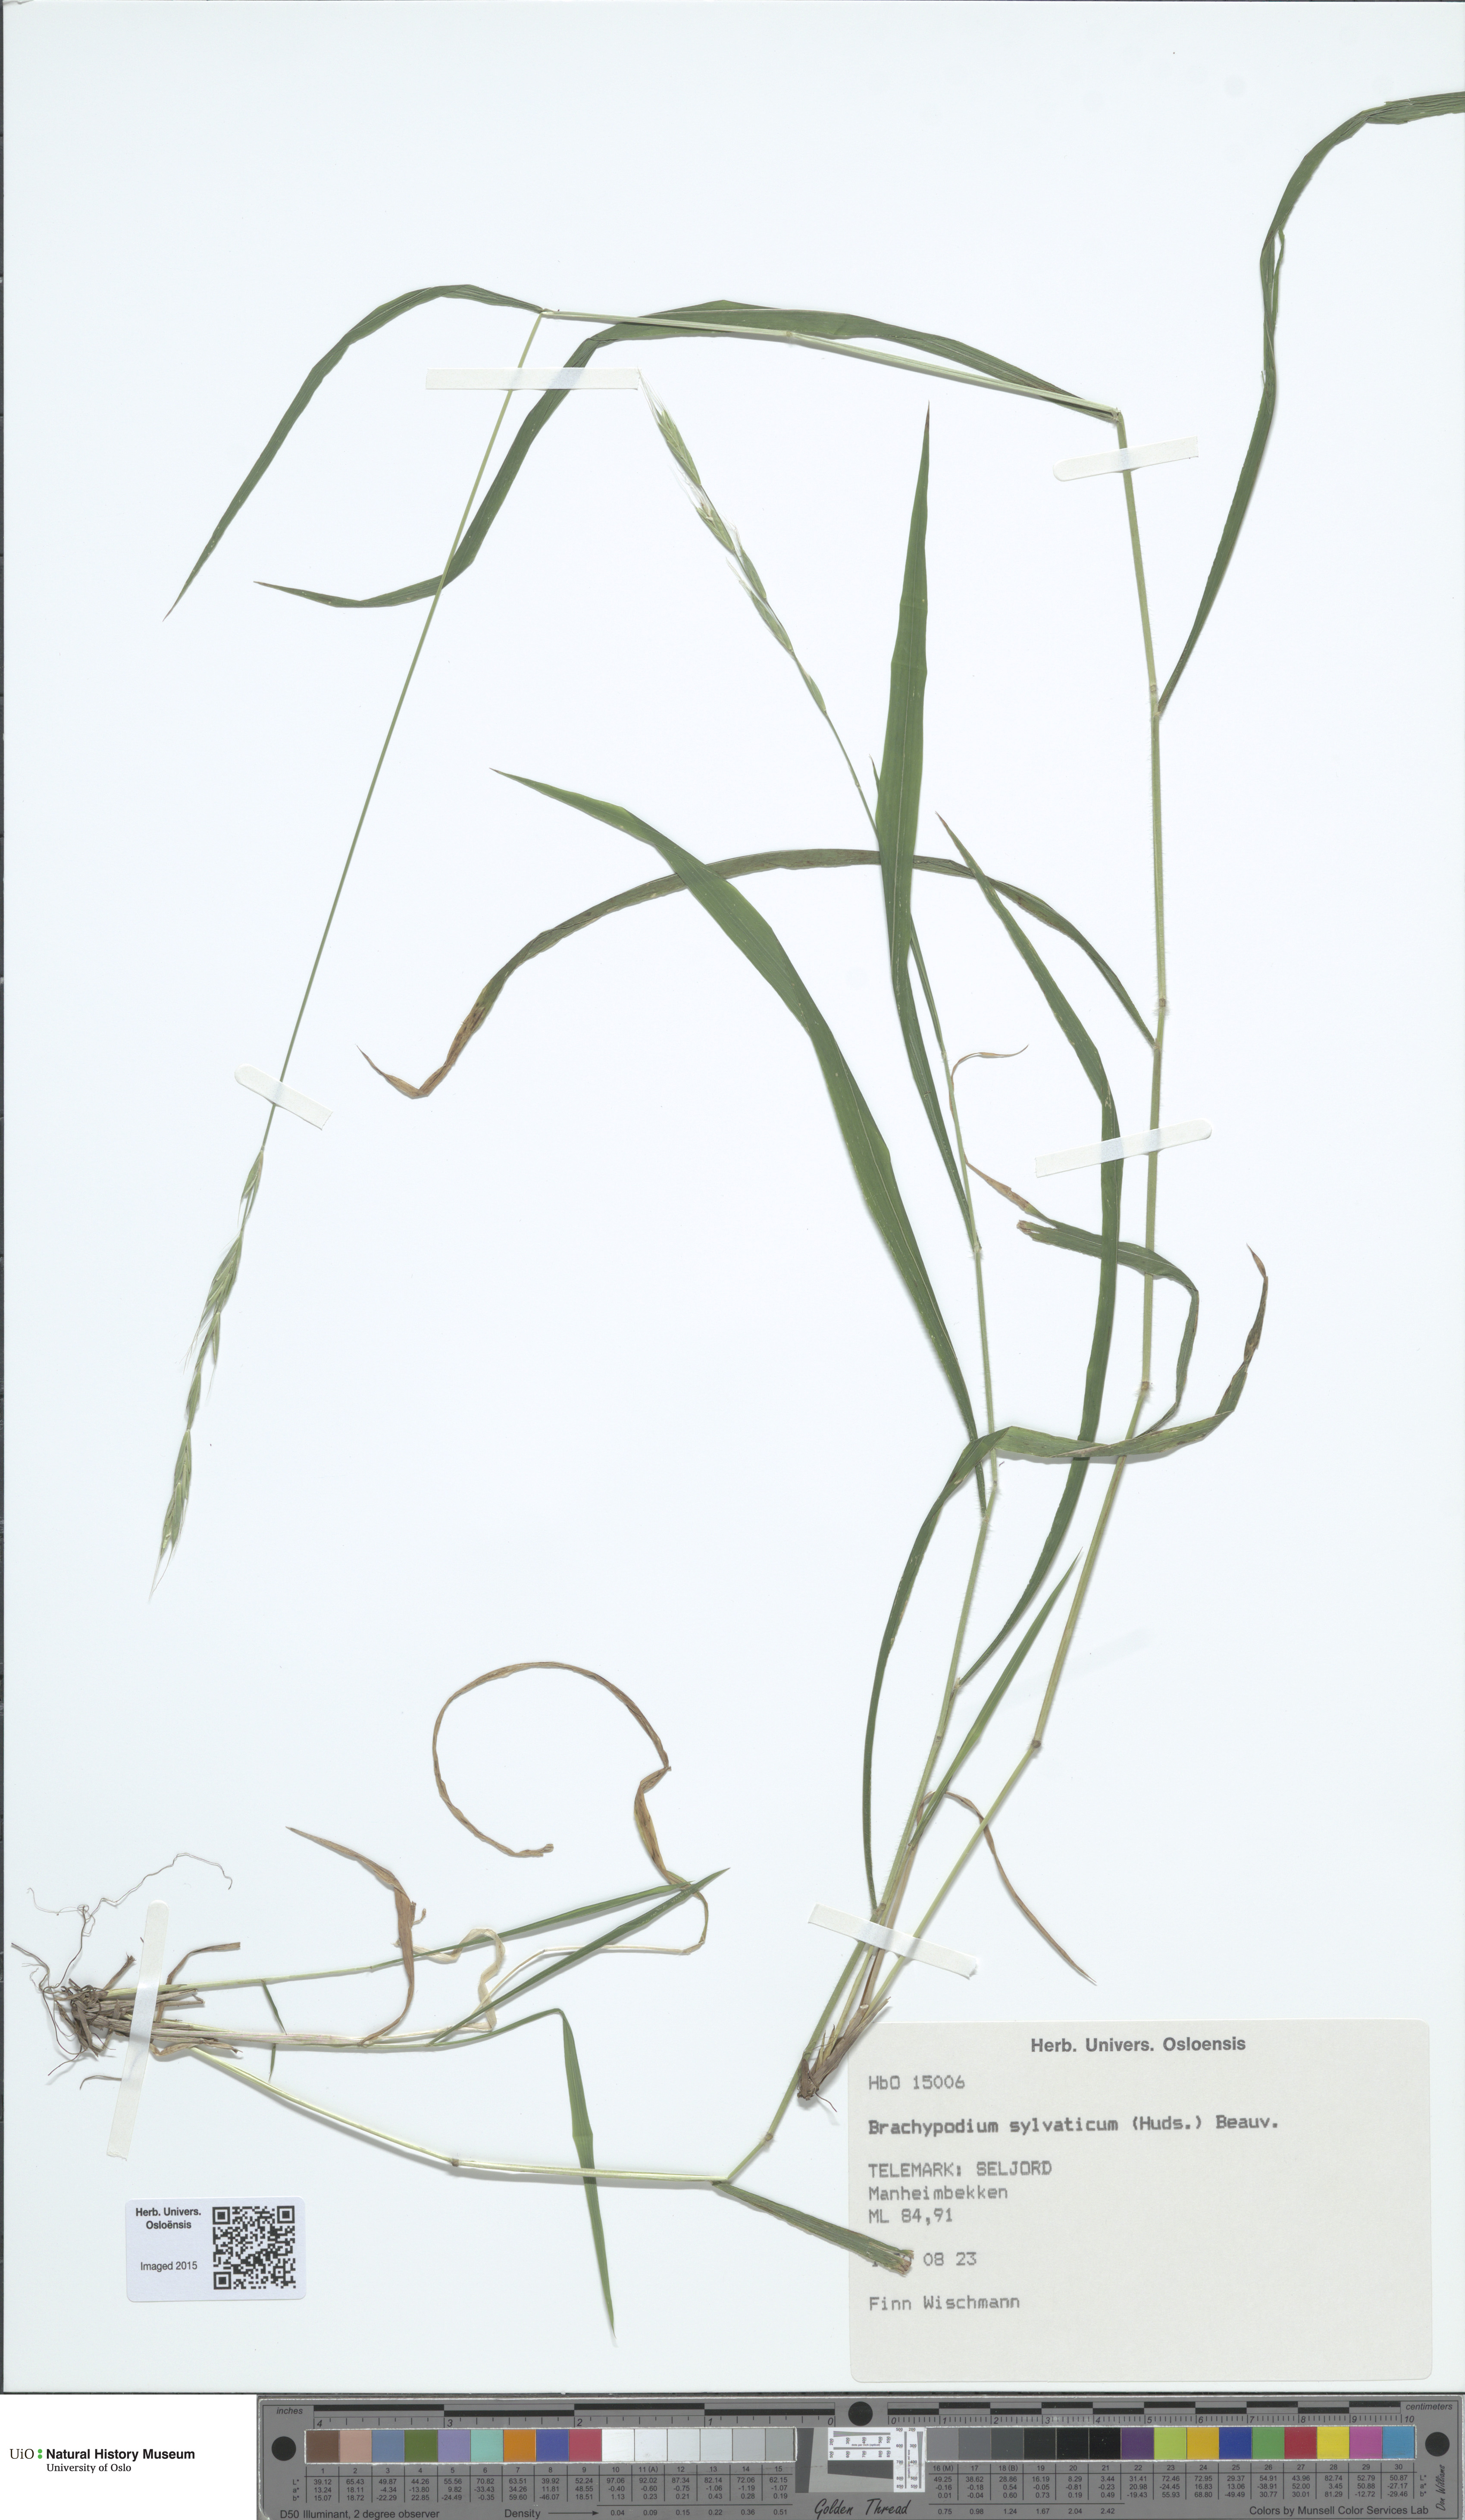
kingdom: Plantae
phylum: Tracheophyta
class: Liliopsida
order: Poales
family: Poaceae
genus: Brachypodium
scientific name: Brachypodium sylvaticum
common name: False-brome
